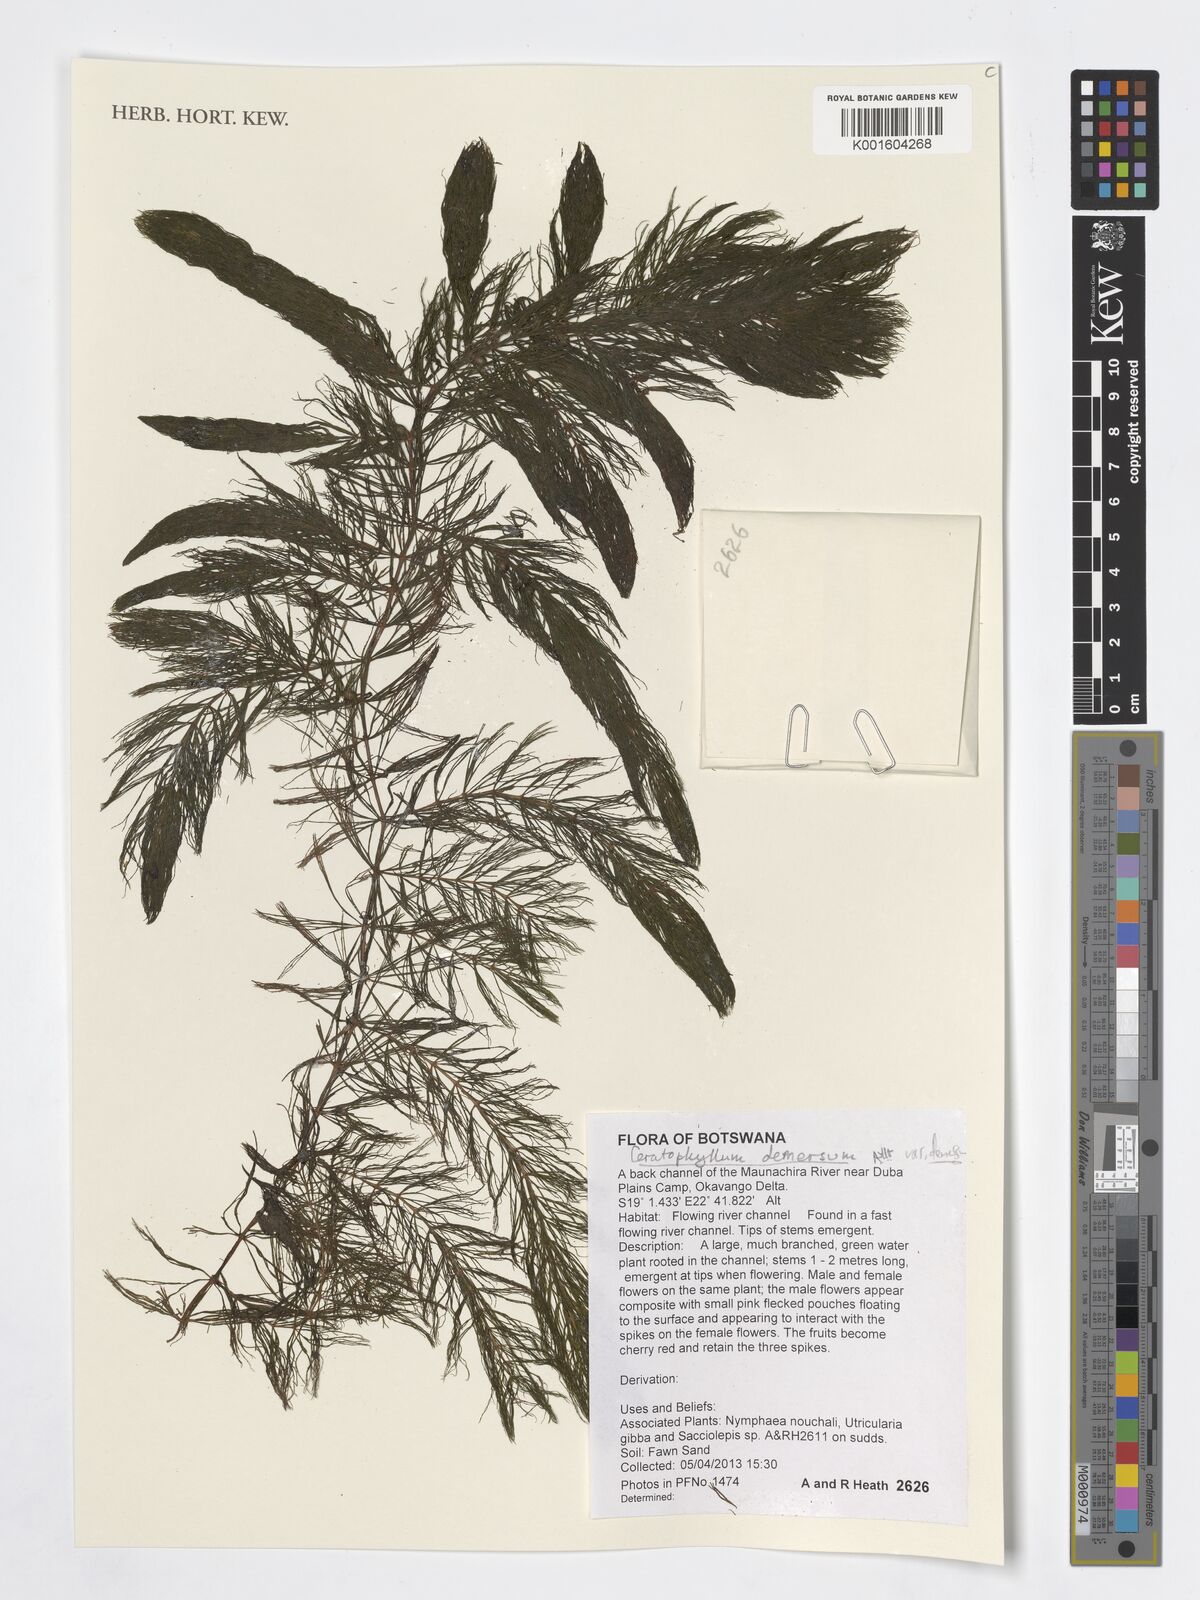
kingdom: Plantae
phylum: Tracheophyta
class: Magnoliopsida
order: Ceratophyllales
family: Ceratophyllaceae
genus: Ceratophyllum
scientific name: Ceratophyllum demersum
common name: Rigid hornwort
